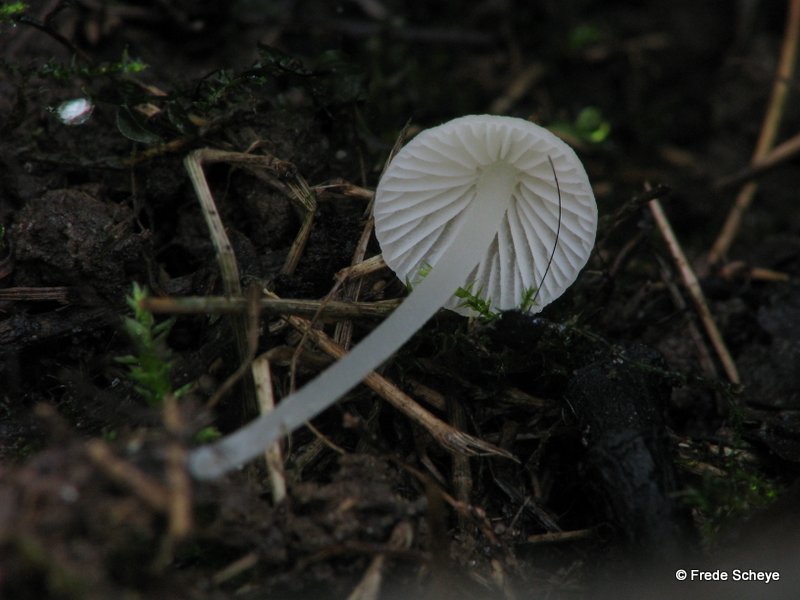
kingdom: Fungi
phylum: Basidiomycota
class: Agaricomycetes
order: Agaricales
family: Mycenaceae
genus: Atheniella
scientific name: Atheniella flavoalba
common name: gulhvid huesvamp
